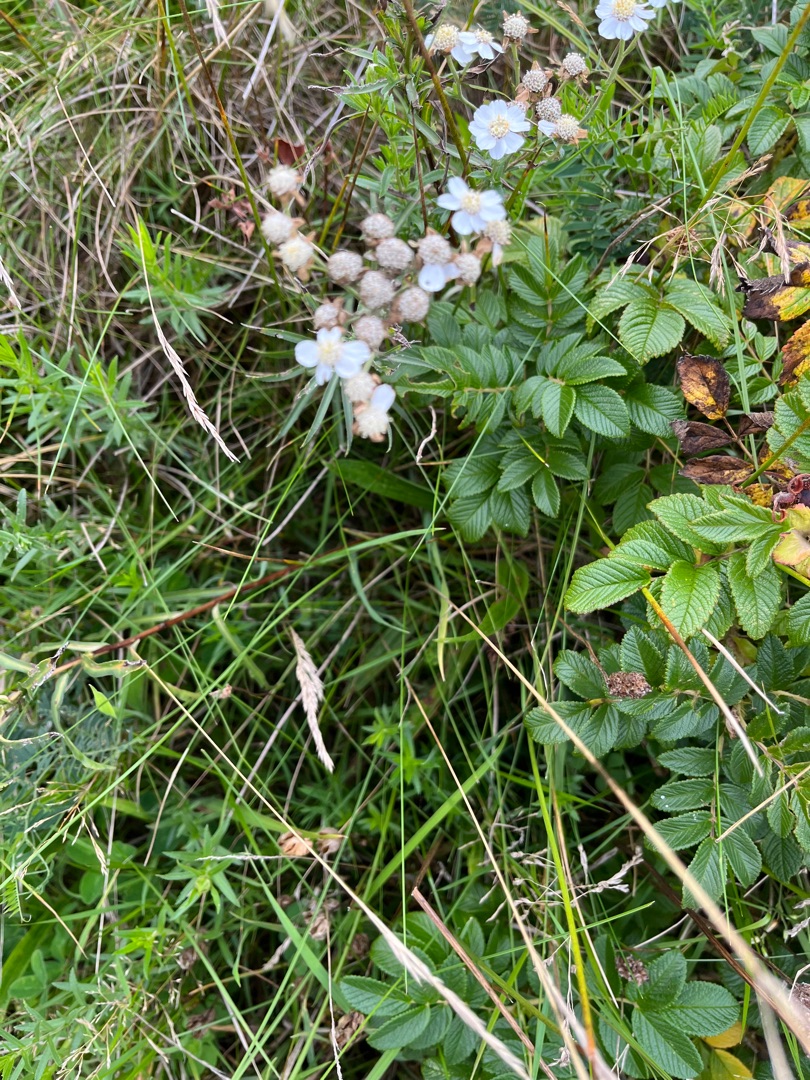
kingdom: Plantae
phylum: Tracheophyta
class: Magnoliopsida
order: Asterales
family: Asteraceae
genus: Achillea
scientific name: Achillea ptarmica
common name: Nyse-røllike
